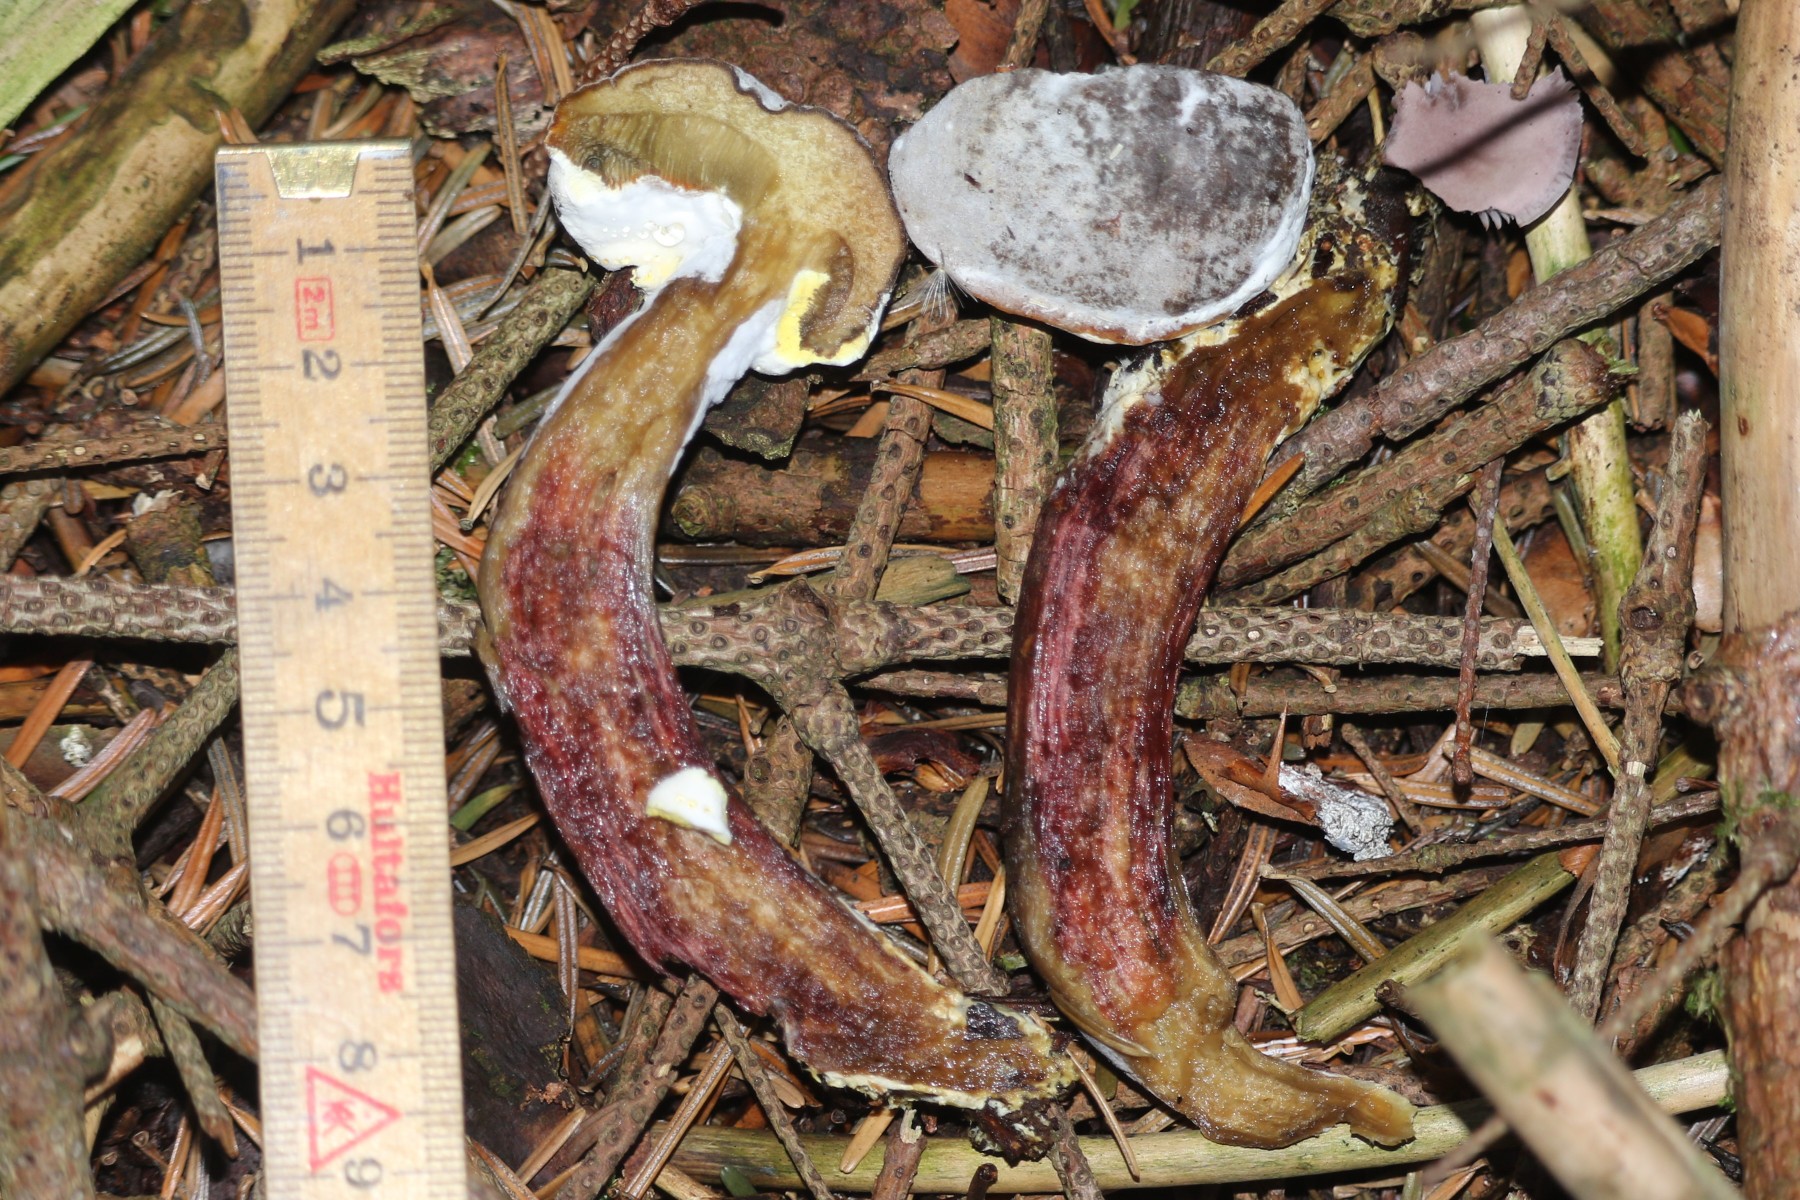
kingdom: Fungi
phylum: Ascomycota
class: Sordariomycetes
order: Hypocreales
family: Hypocreaceae
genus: Hypomyces
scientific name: Hypomyces microspermus
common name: dværgrørhat-snylteskorpe
